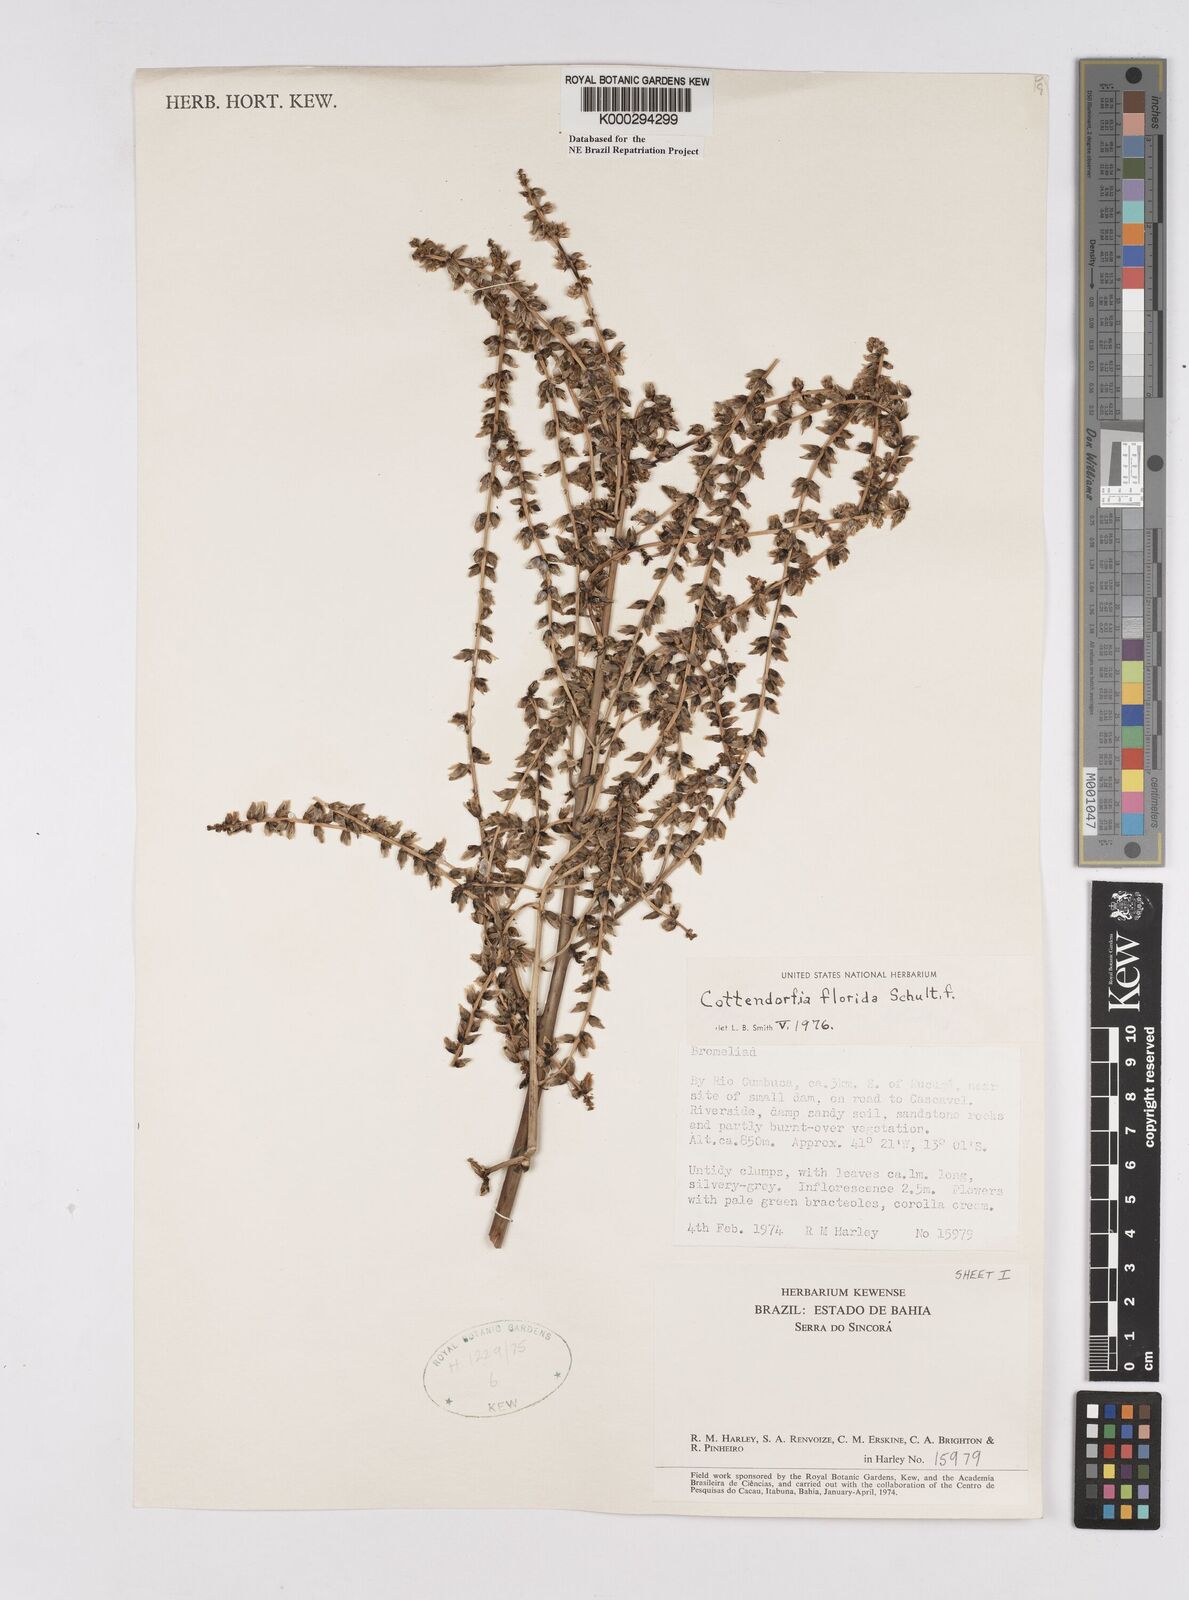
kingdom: Plantae
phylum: Tracheophyta
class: Liliopsida
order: Poales
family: Bromeliaceae
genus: Cottendorfia
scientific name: Cottendorfia florida
